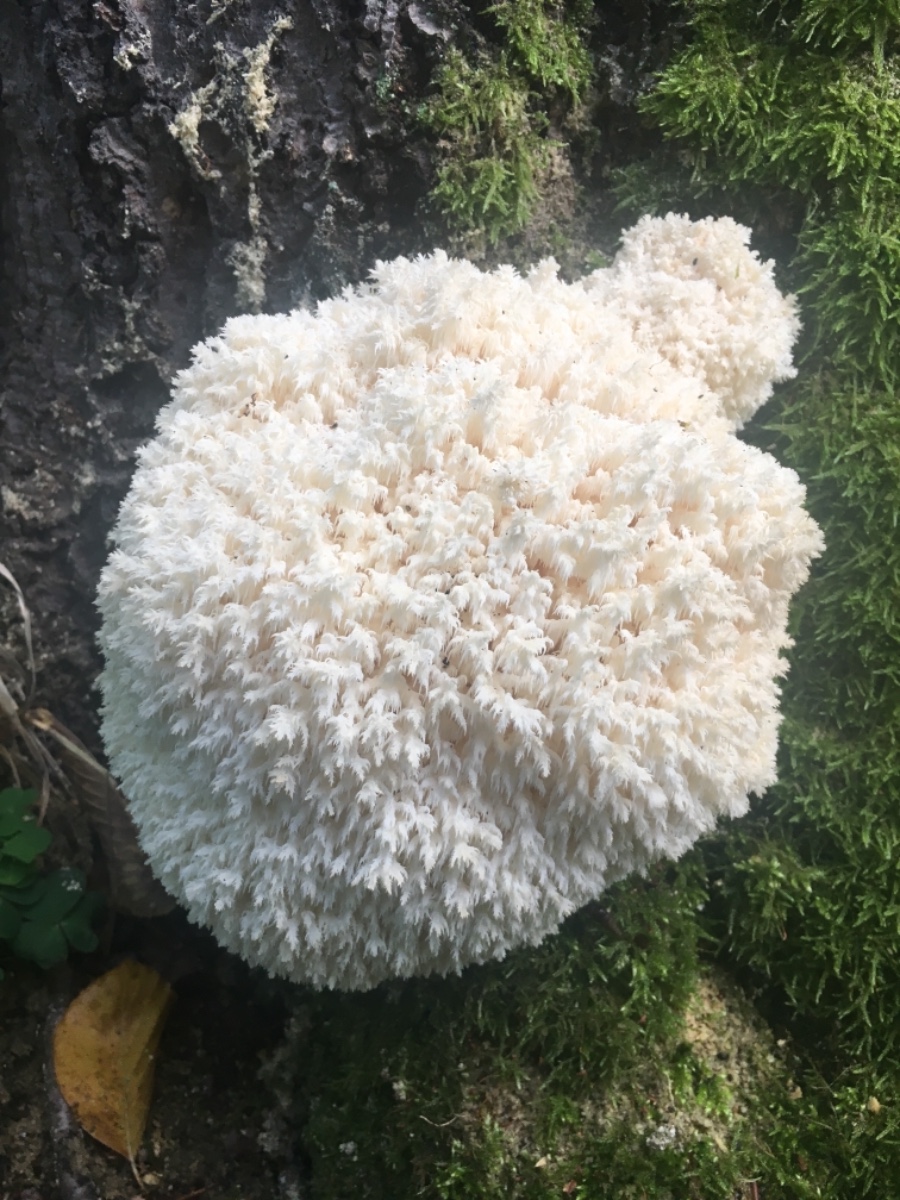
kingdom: Fungi
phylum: Basidiomycota
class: Agaricomycetes
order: Russulales
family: Hericiaceae
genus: Hericium
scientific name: Hericium coralloides
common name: koralpigsvamp
